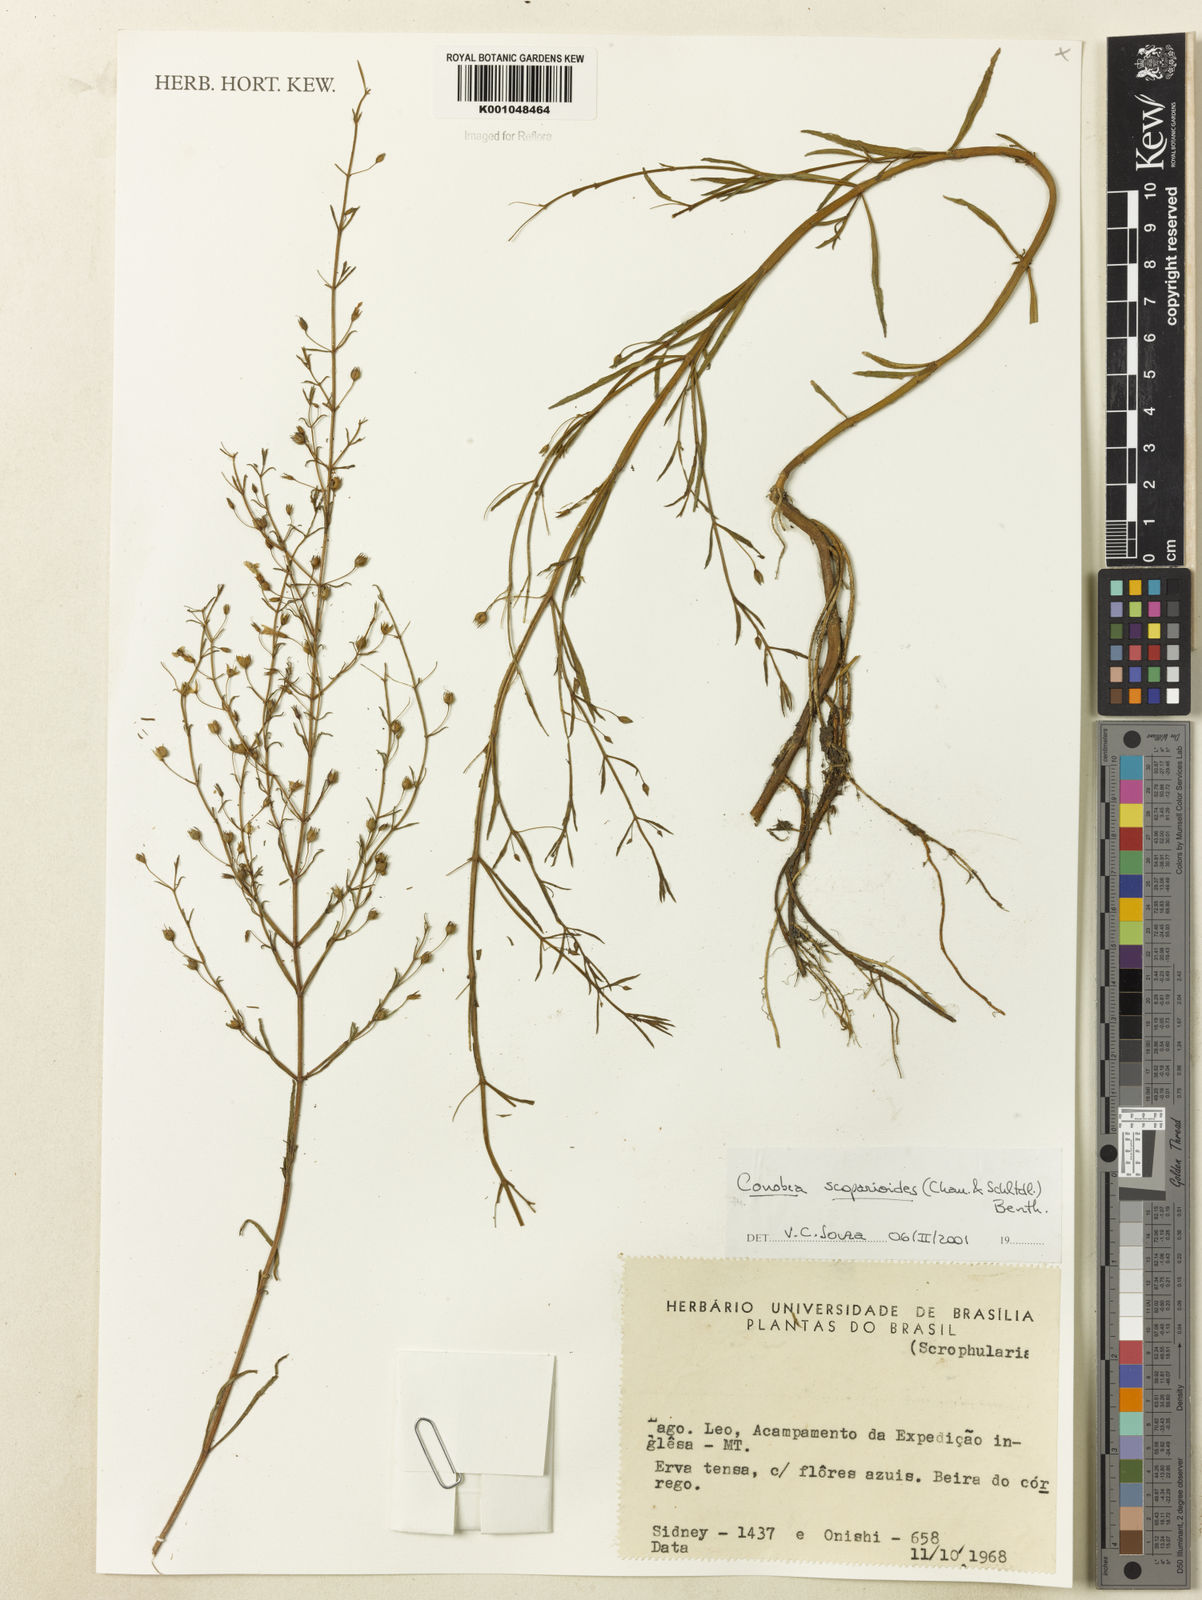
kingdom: Plantae
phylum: Tracheophyta
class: Magnoliopsida
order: Lamiales
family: Plantaginaceae
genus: Conobea
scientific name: Conobea scoparioides
